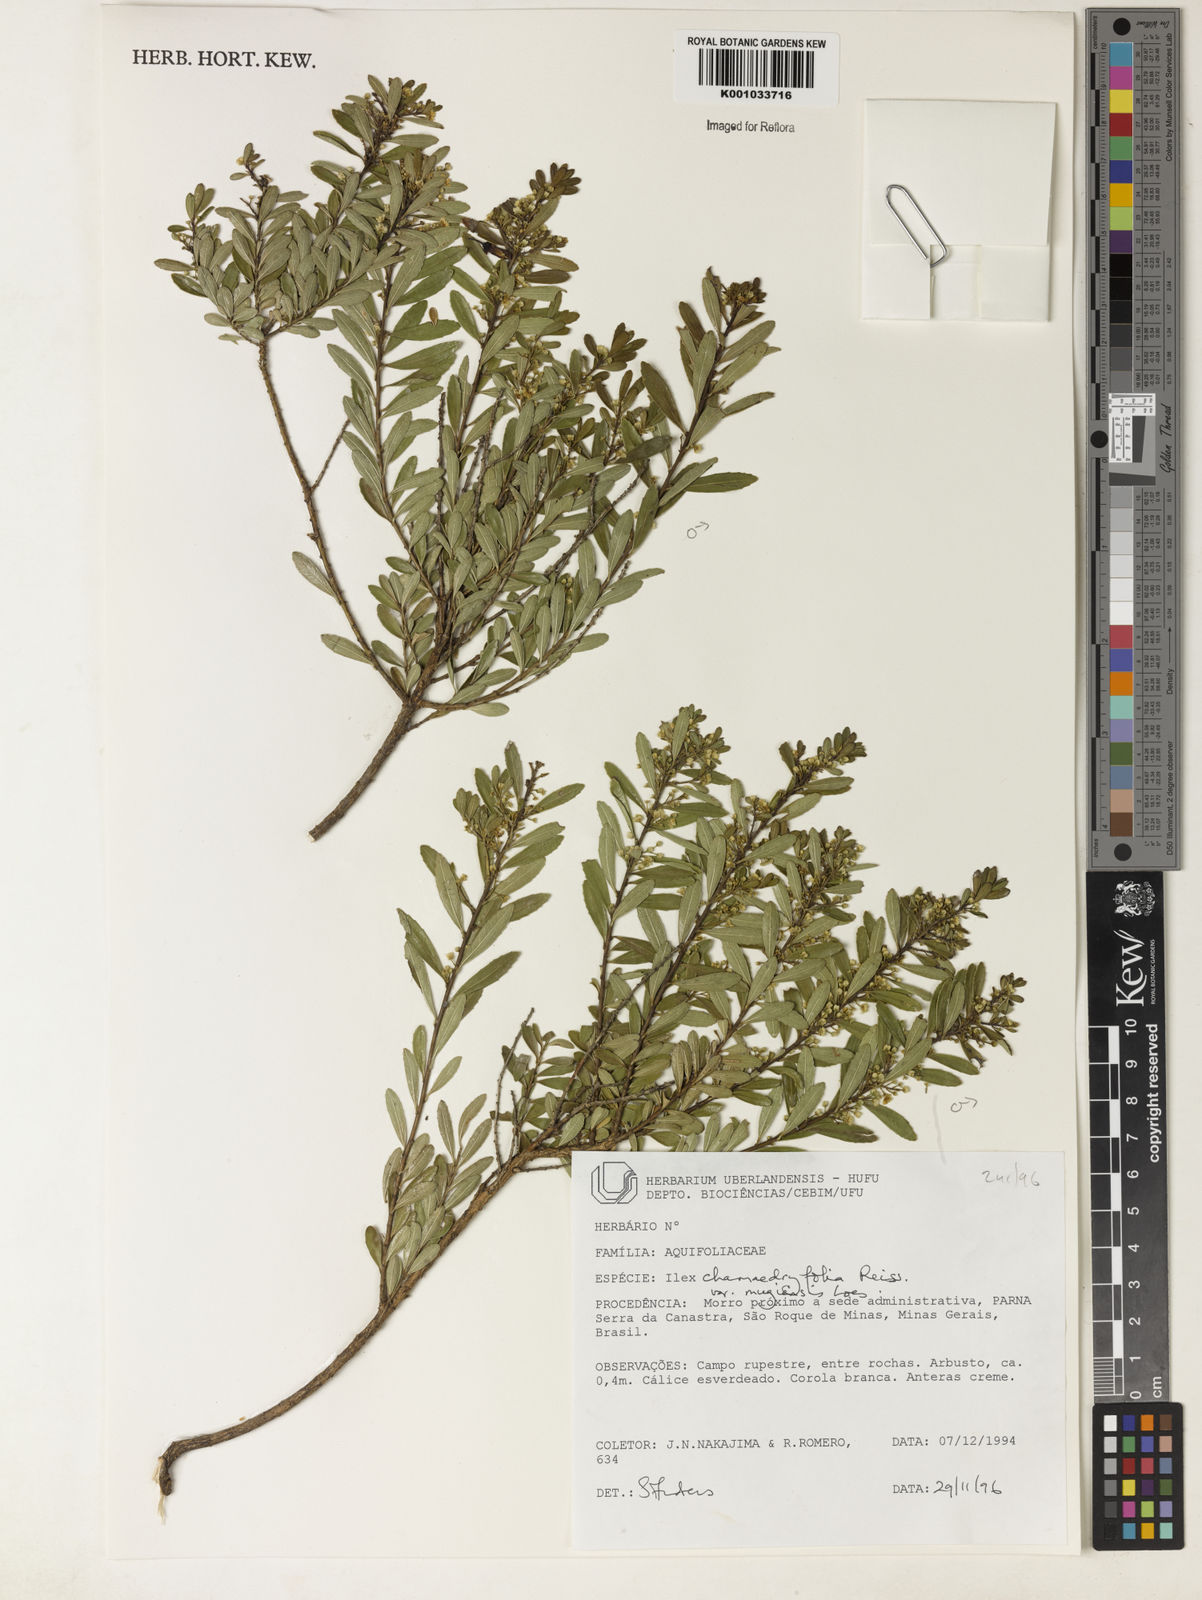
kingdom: Plantae
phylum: Tracheophyta
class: Magnoliopsida
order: Aquifoliales
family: Aquifoliaceae
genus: Ilex
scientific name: Ilex chamaedryfolia
